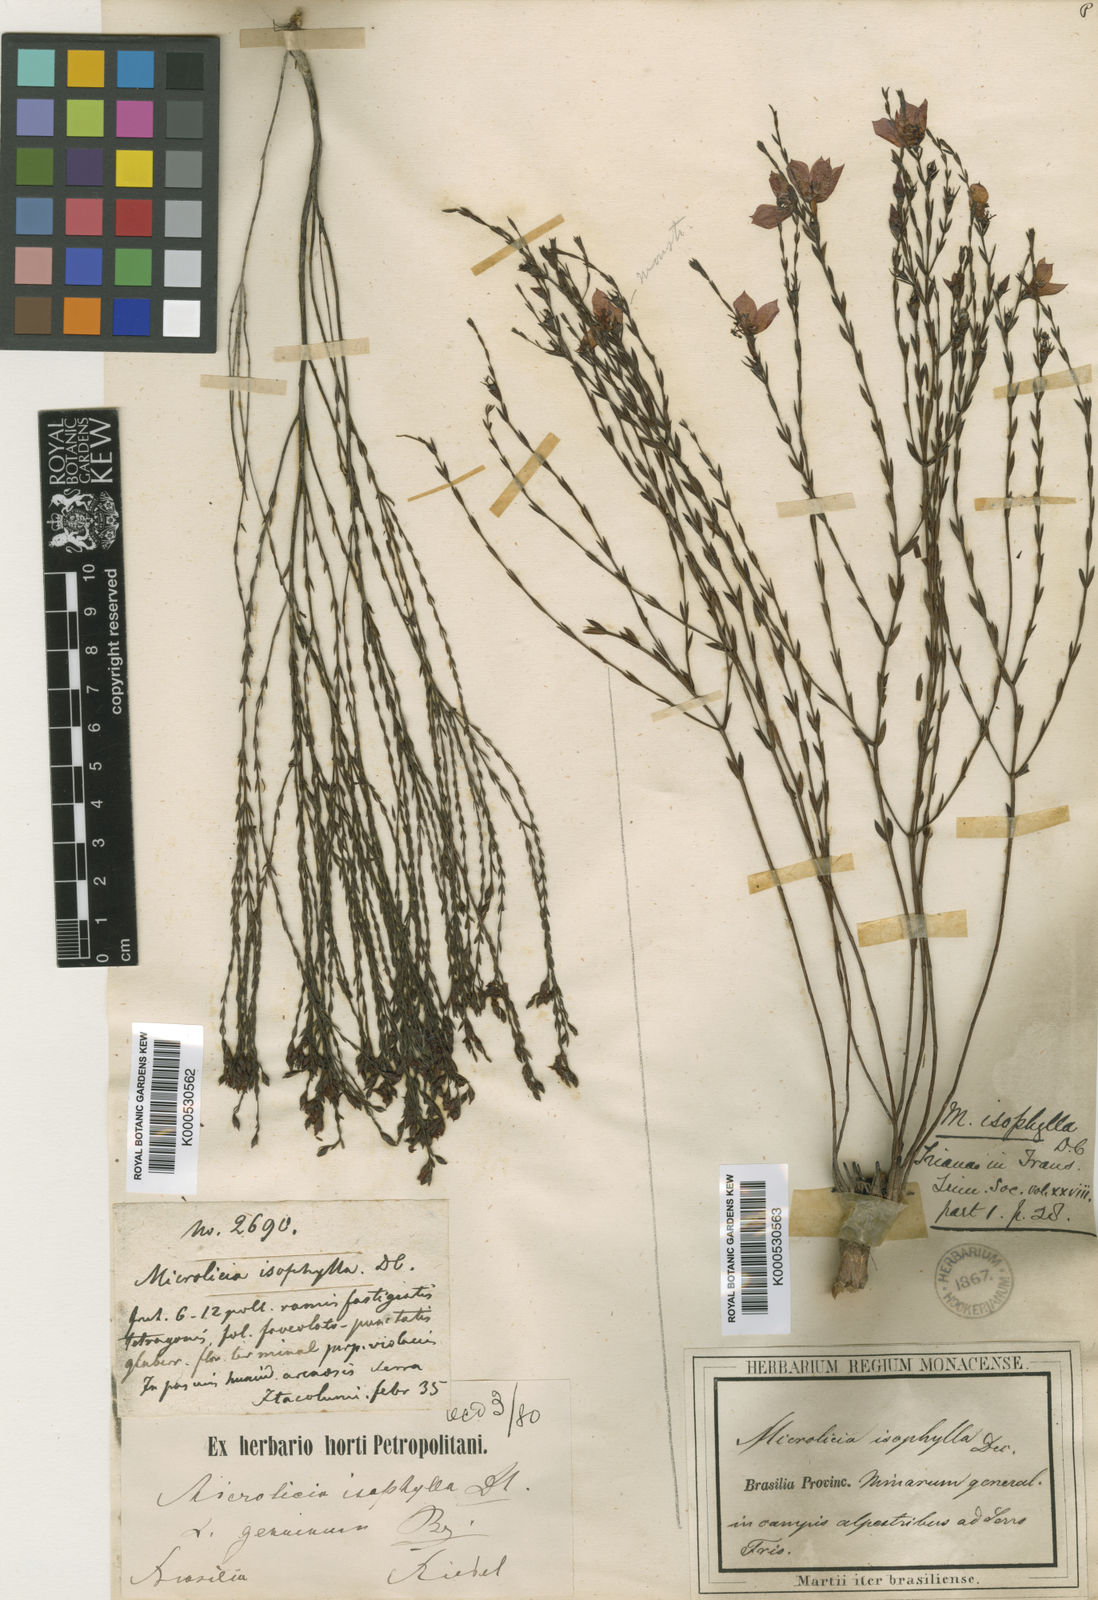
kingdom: Plantae
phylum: Tracheophyta
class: Magnoliopsida
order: Myrtales
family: Melastomataceae
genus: Microlicia
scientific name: Microlicia isophylla
